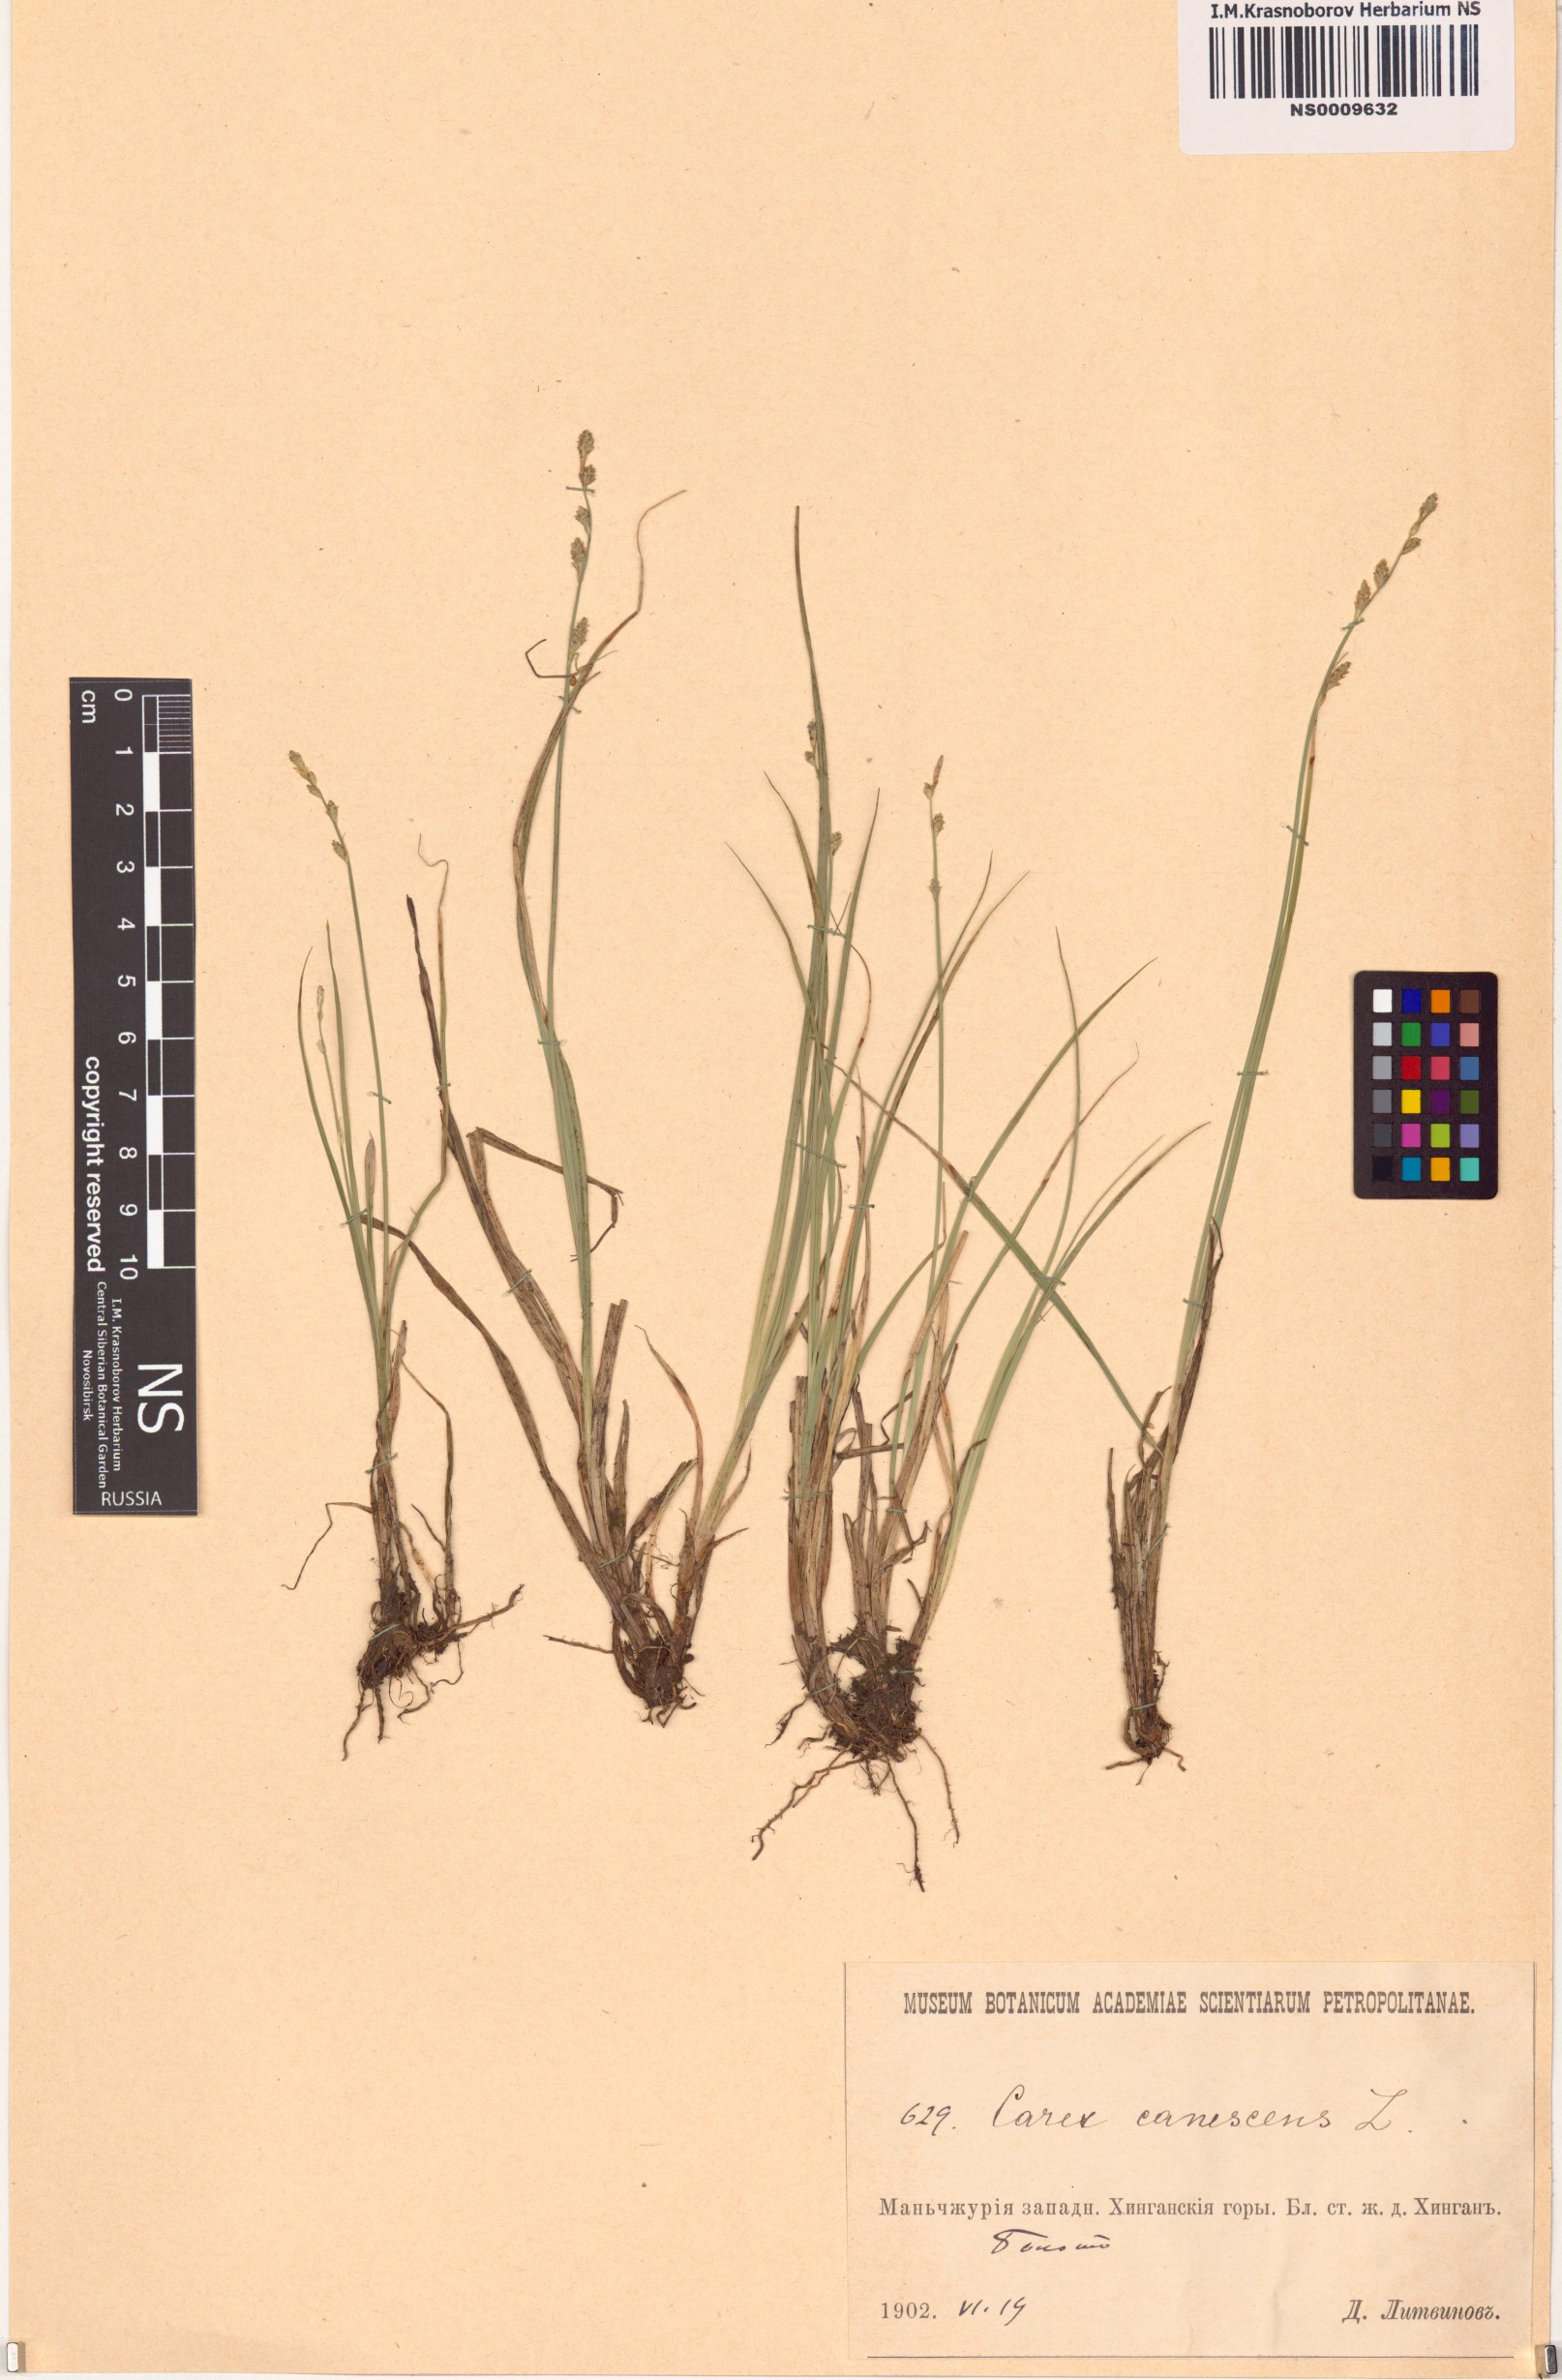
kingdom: Plantae
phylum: Tracheophyta
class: Liliopsida
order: Poales
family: Cyperaceae
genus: Carex
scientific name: Carex canescens
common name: White sedge
